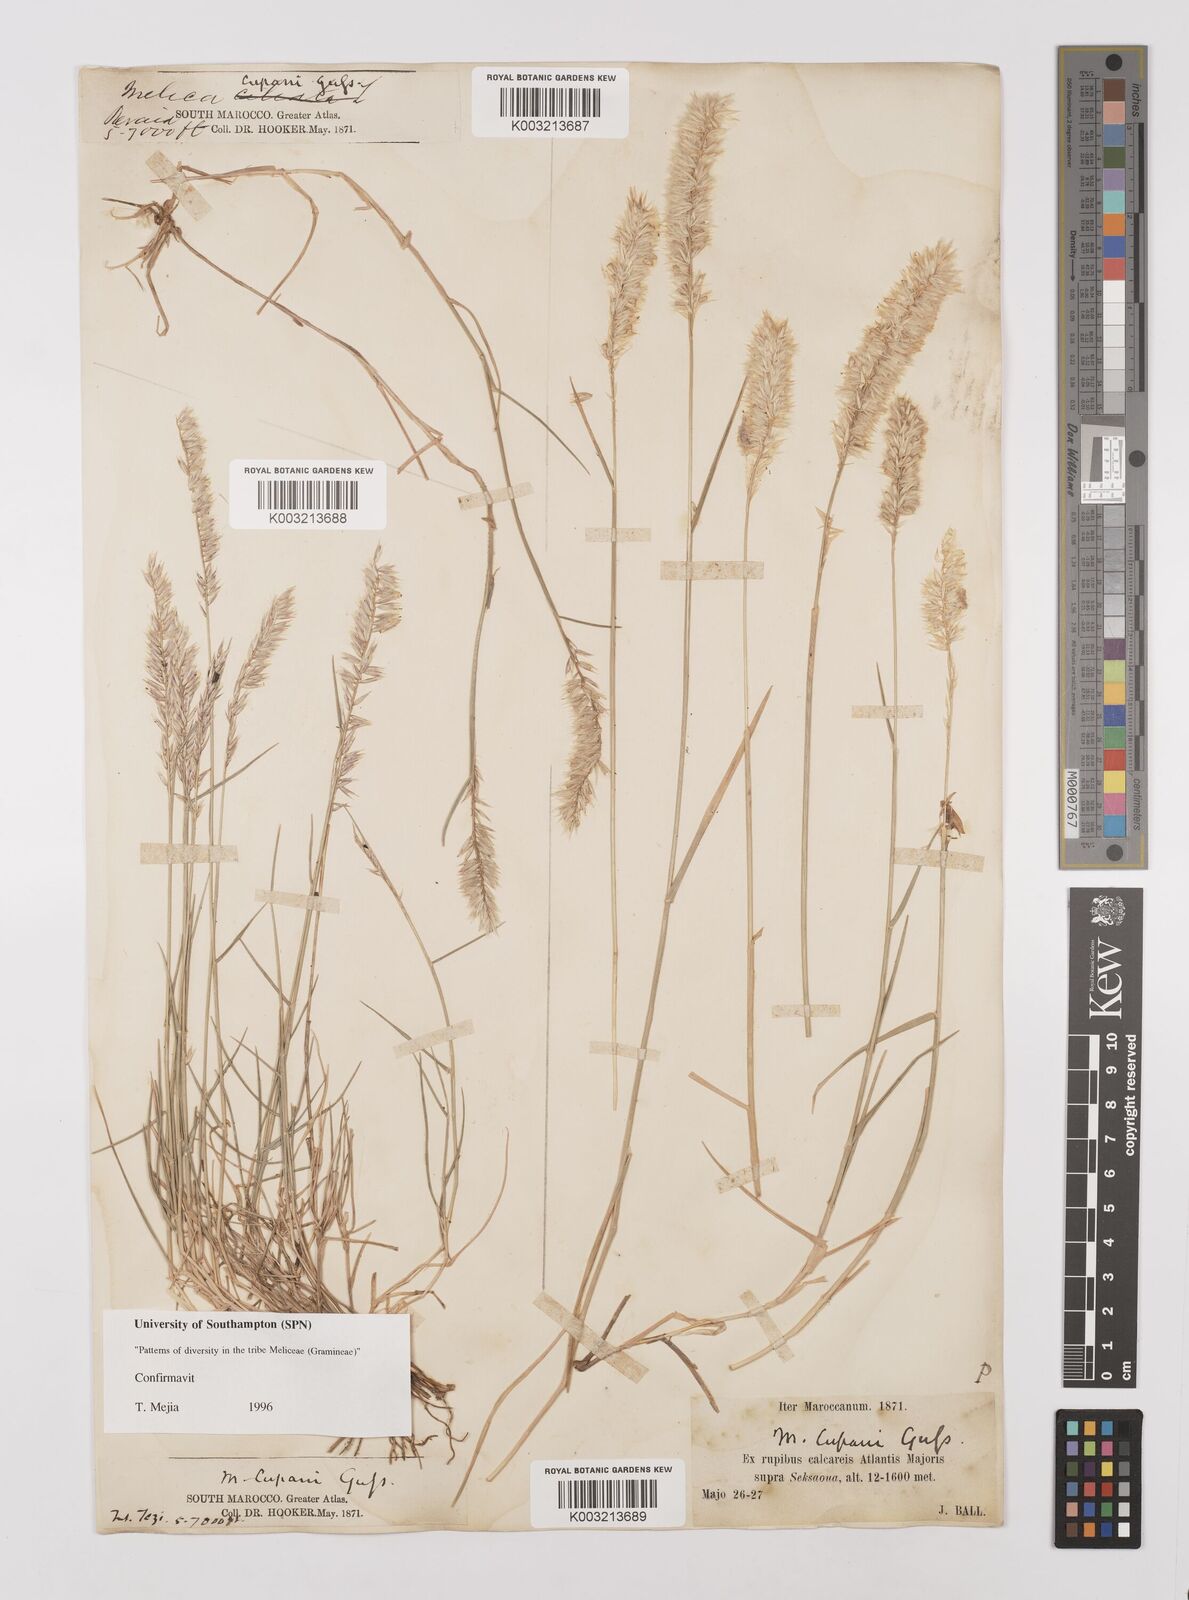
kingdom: Plantae
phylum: Tracheophyta
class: Liliopsida
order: Poales
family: Poaceae
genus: Melica
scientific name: Melica cupani
